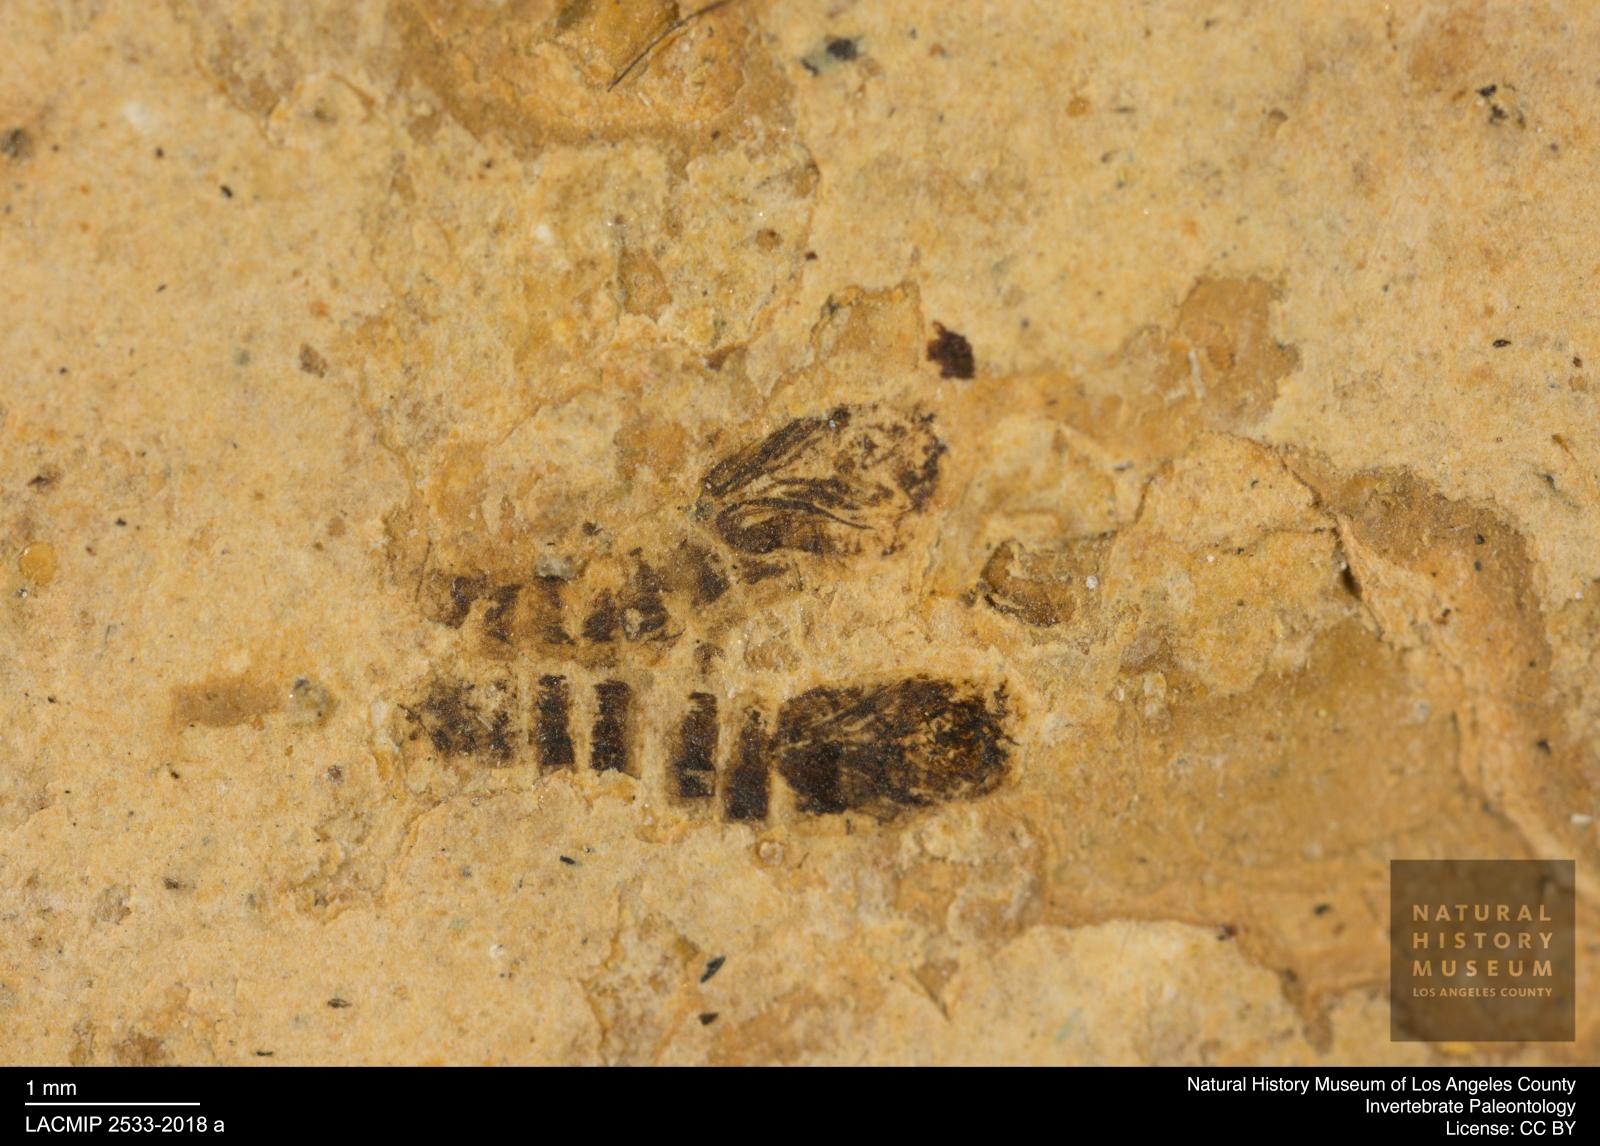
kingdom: Animalia
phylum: Arthropoda
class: Insecta
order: Diptera
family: Ceratopogonidae
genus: Ceratopogon
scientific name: Ceratopogon
